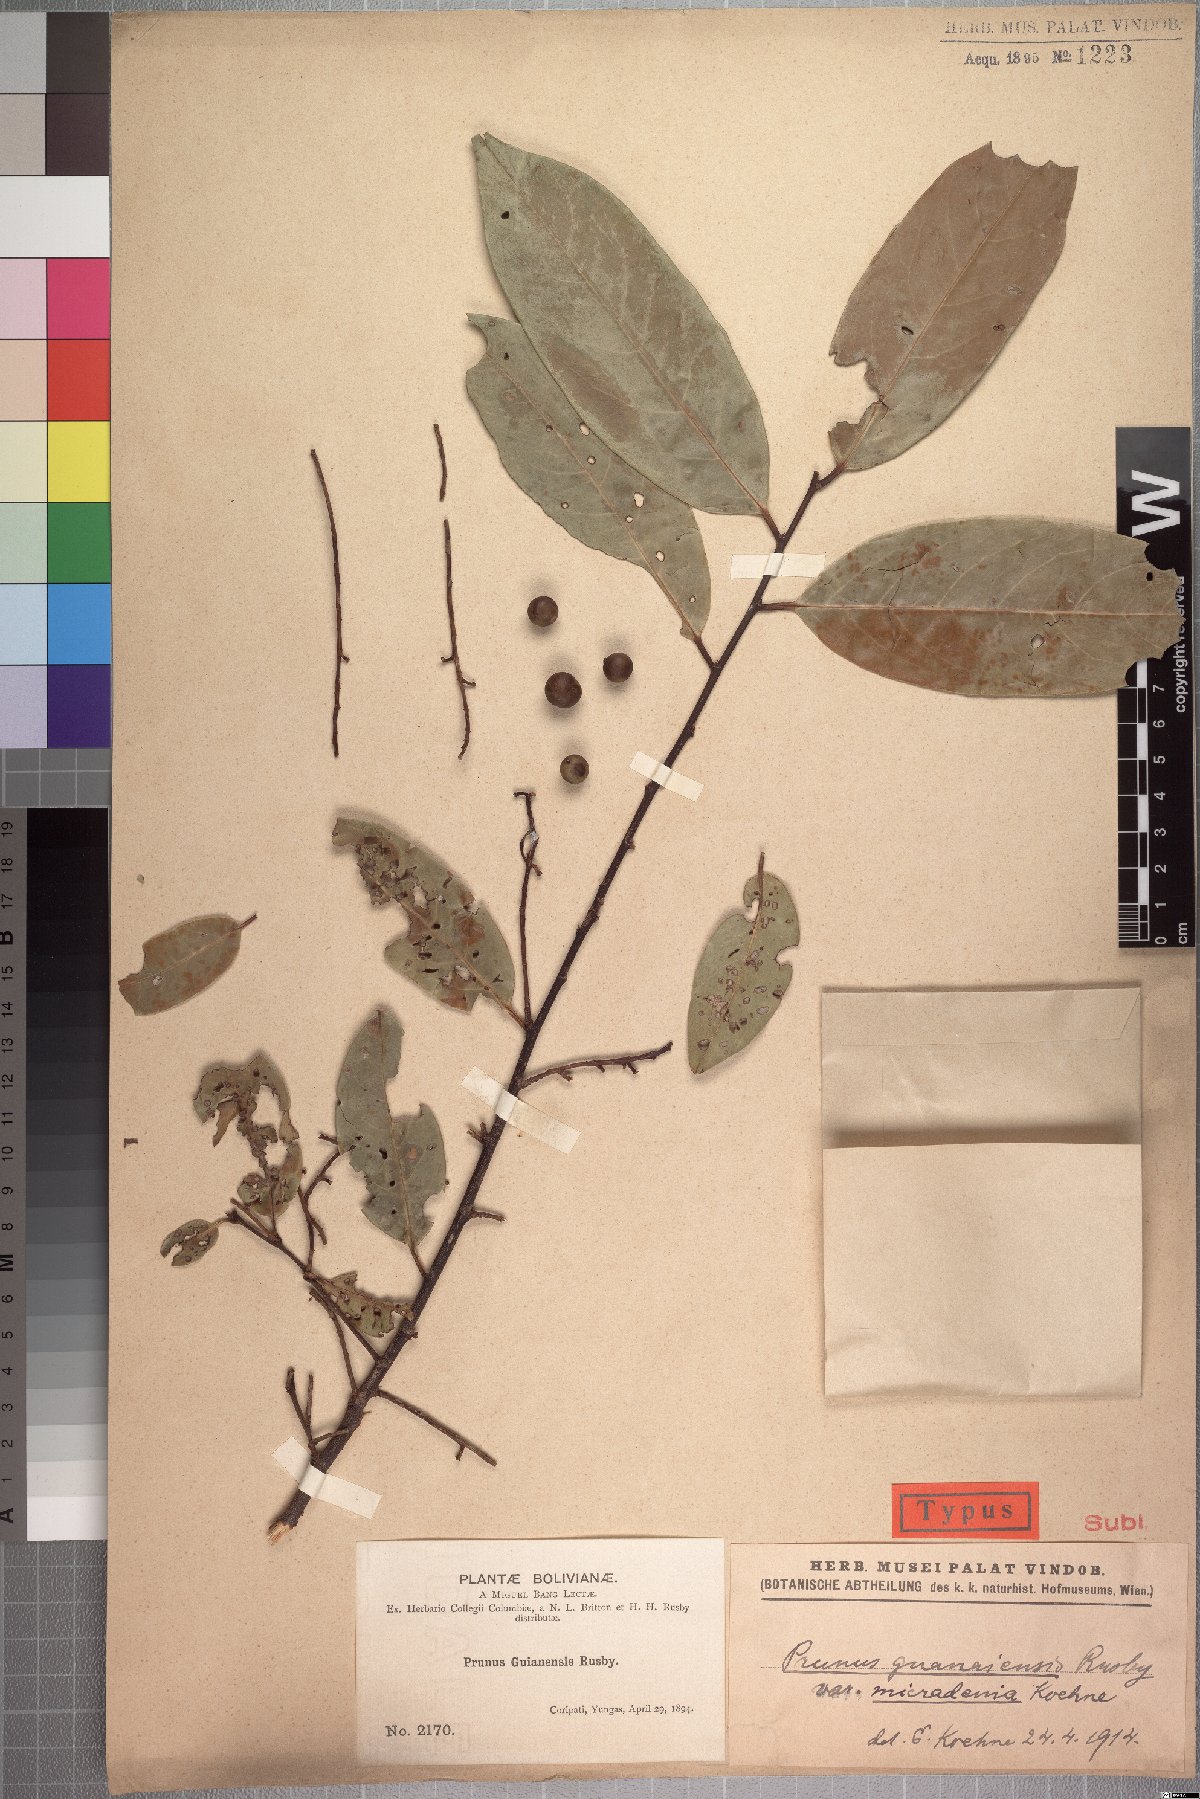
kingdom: Plantae
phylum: Tracheophyta
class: Magnoliopsida
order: Rosales
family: Rosaceae
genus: Prunus
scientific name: Prunus guanaiensis
